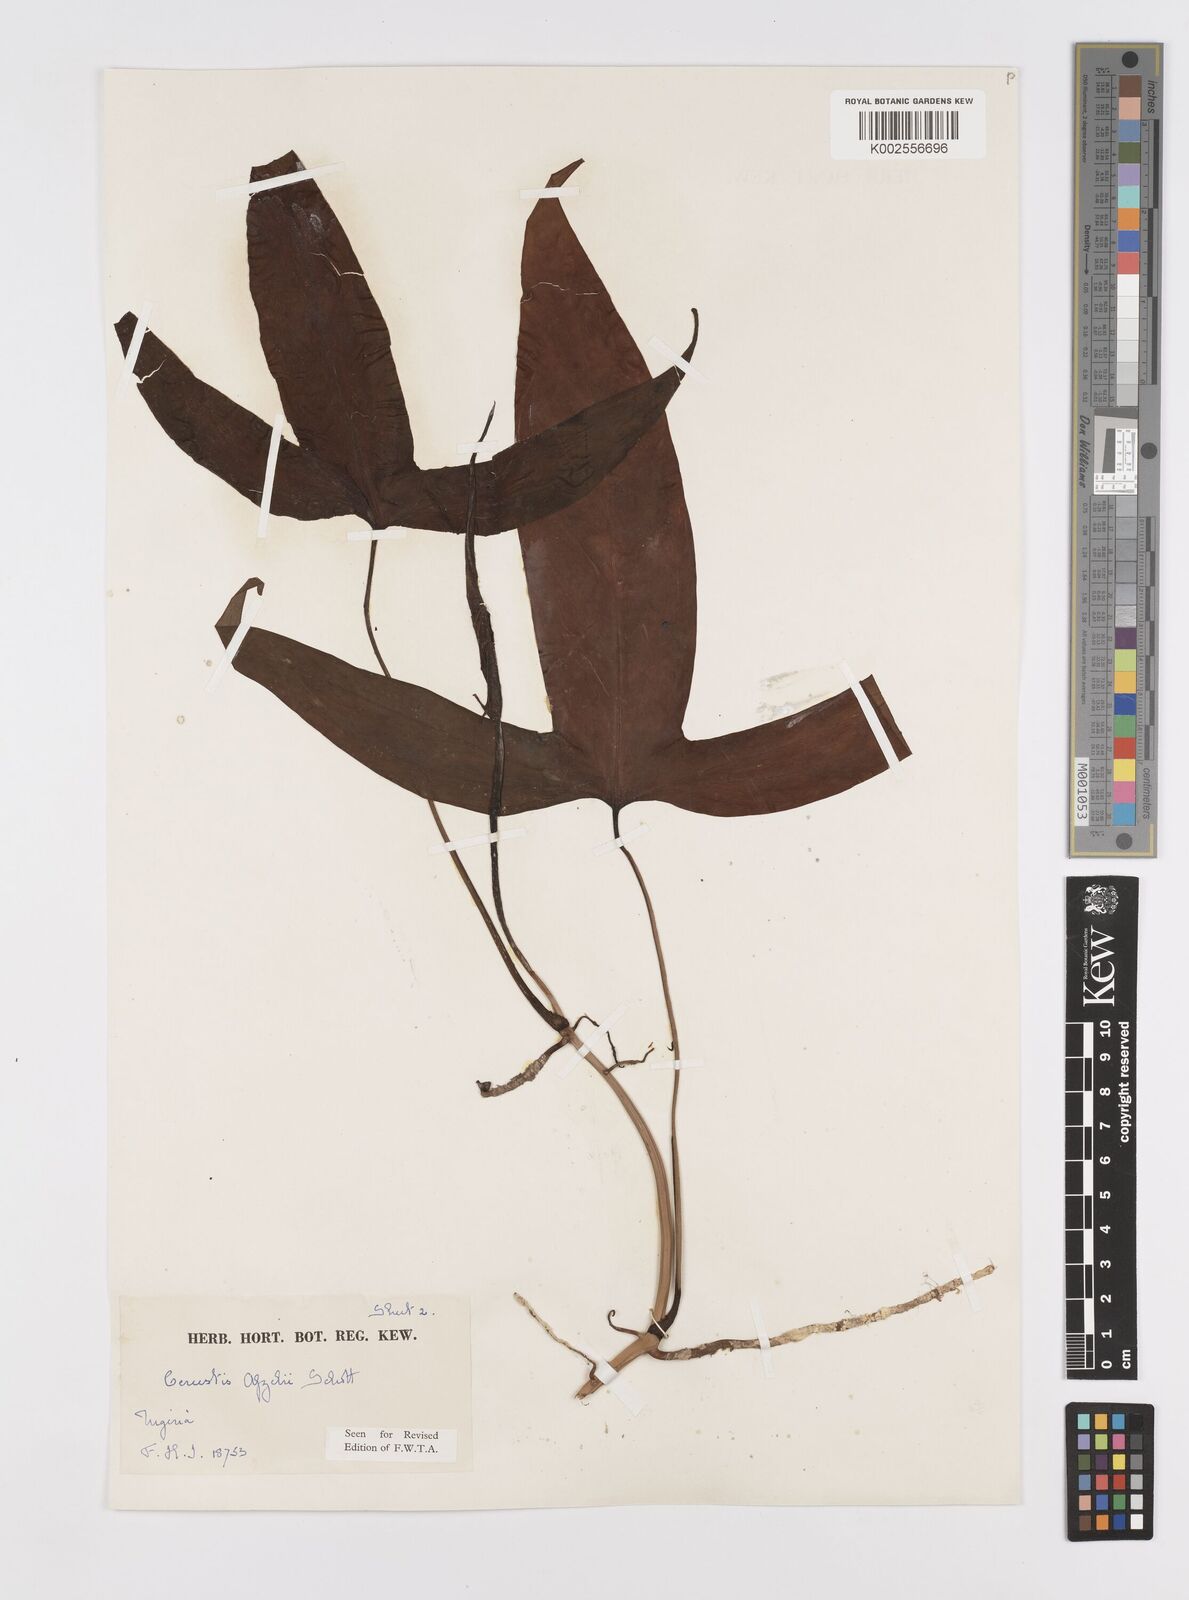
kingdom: Plantae
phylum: Tracheophyta
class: Liliopsida
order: Alismatales
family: Araceae
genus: Cercestis
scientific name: Cercestis afzelii
